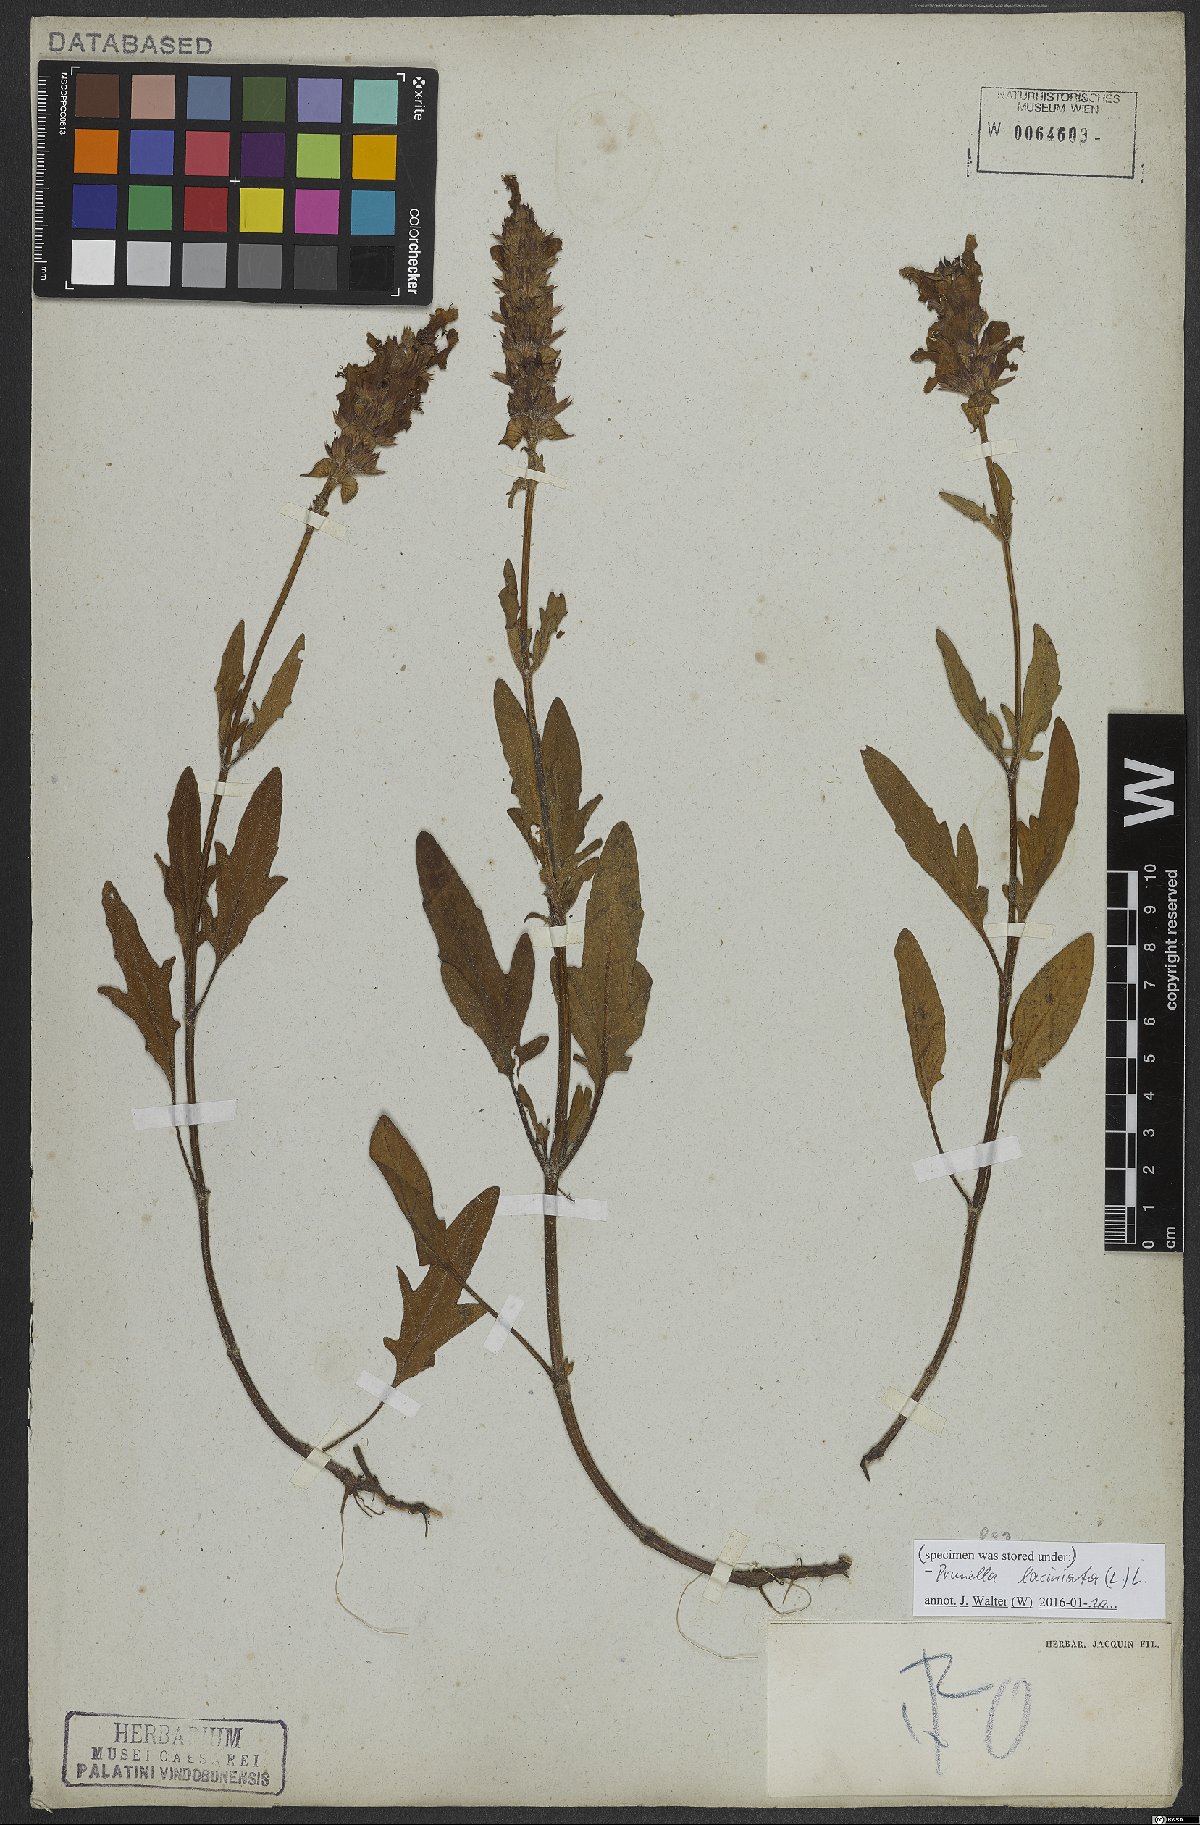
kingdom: Plantae
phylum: Tracheophyta
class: Magnoliopsida
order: Lamiales
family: Lamiaceae
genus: Prunella
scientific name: Prunella laciniata
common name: Cut-leaved selfheal
